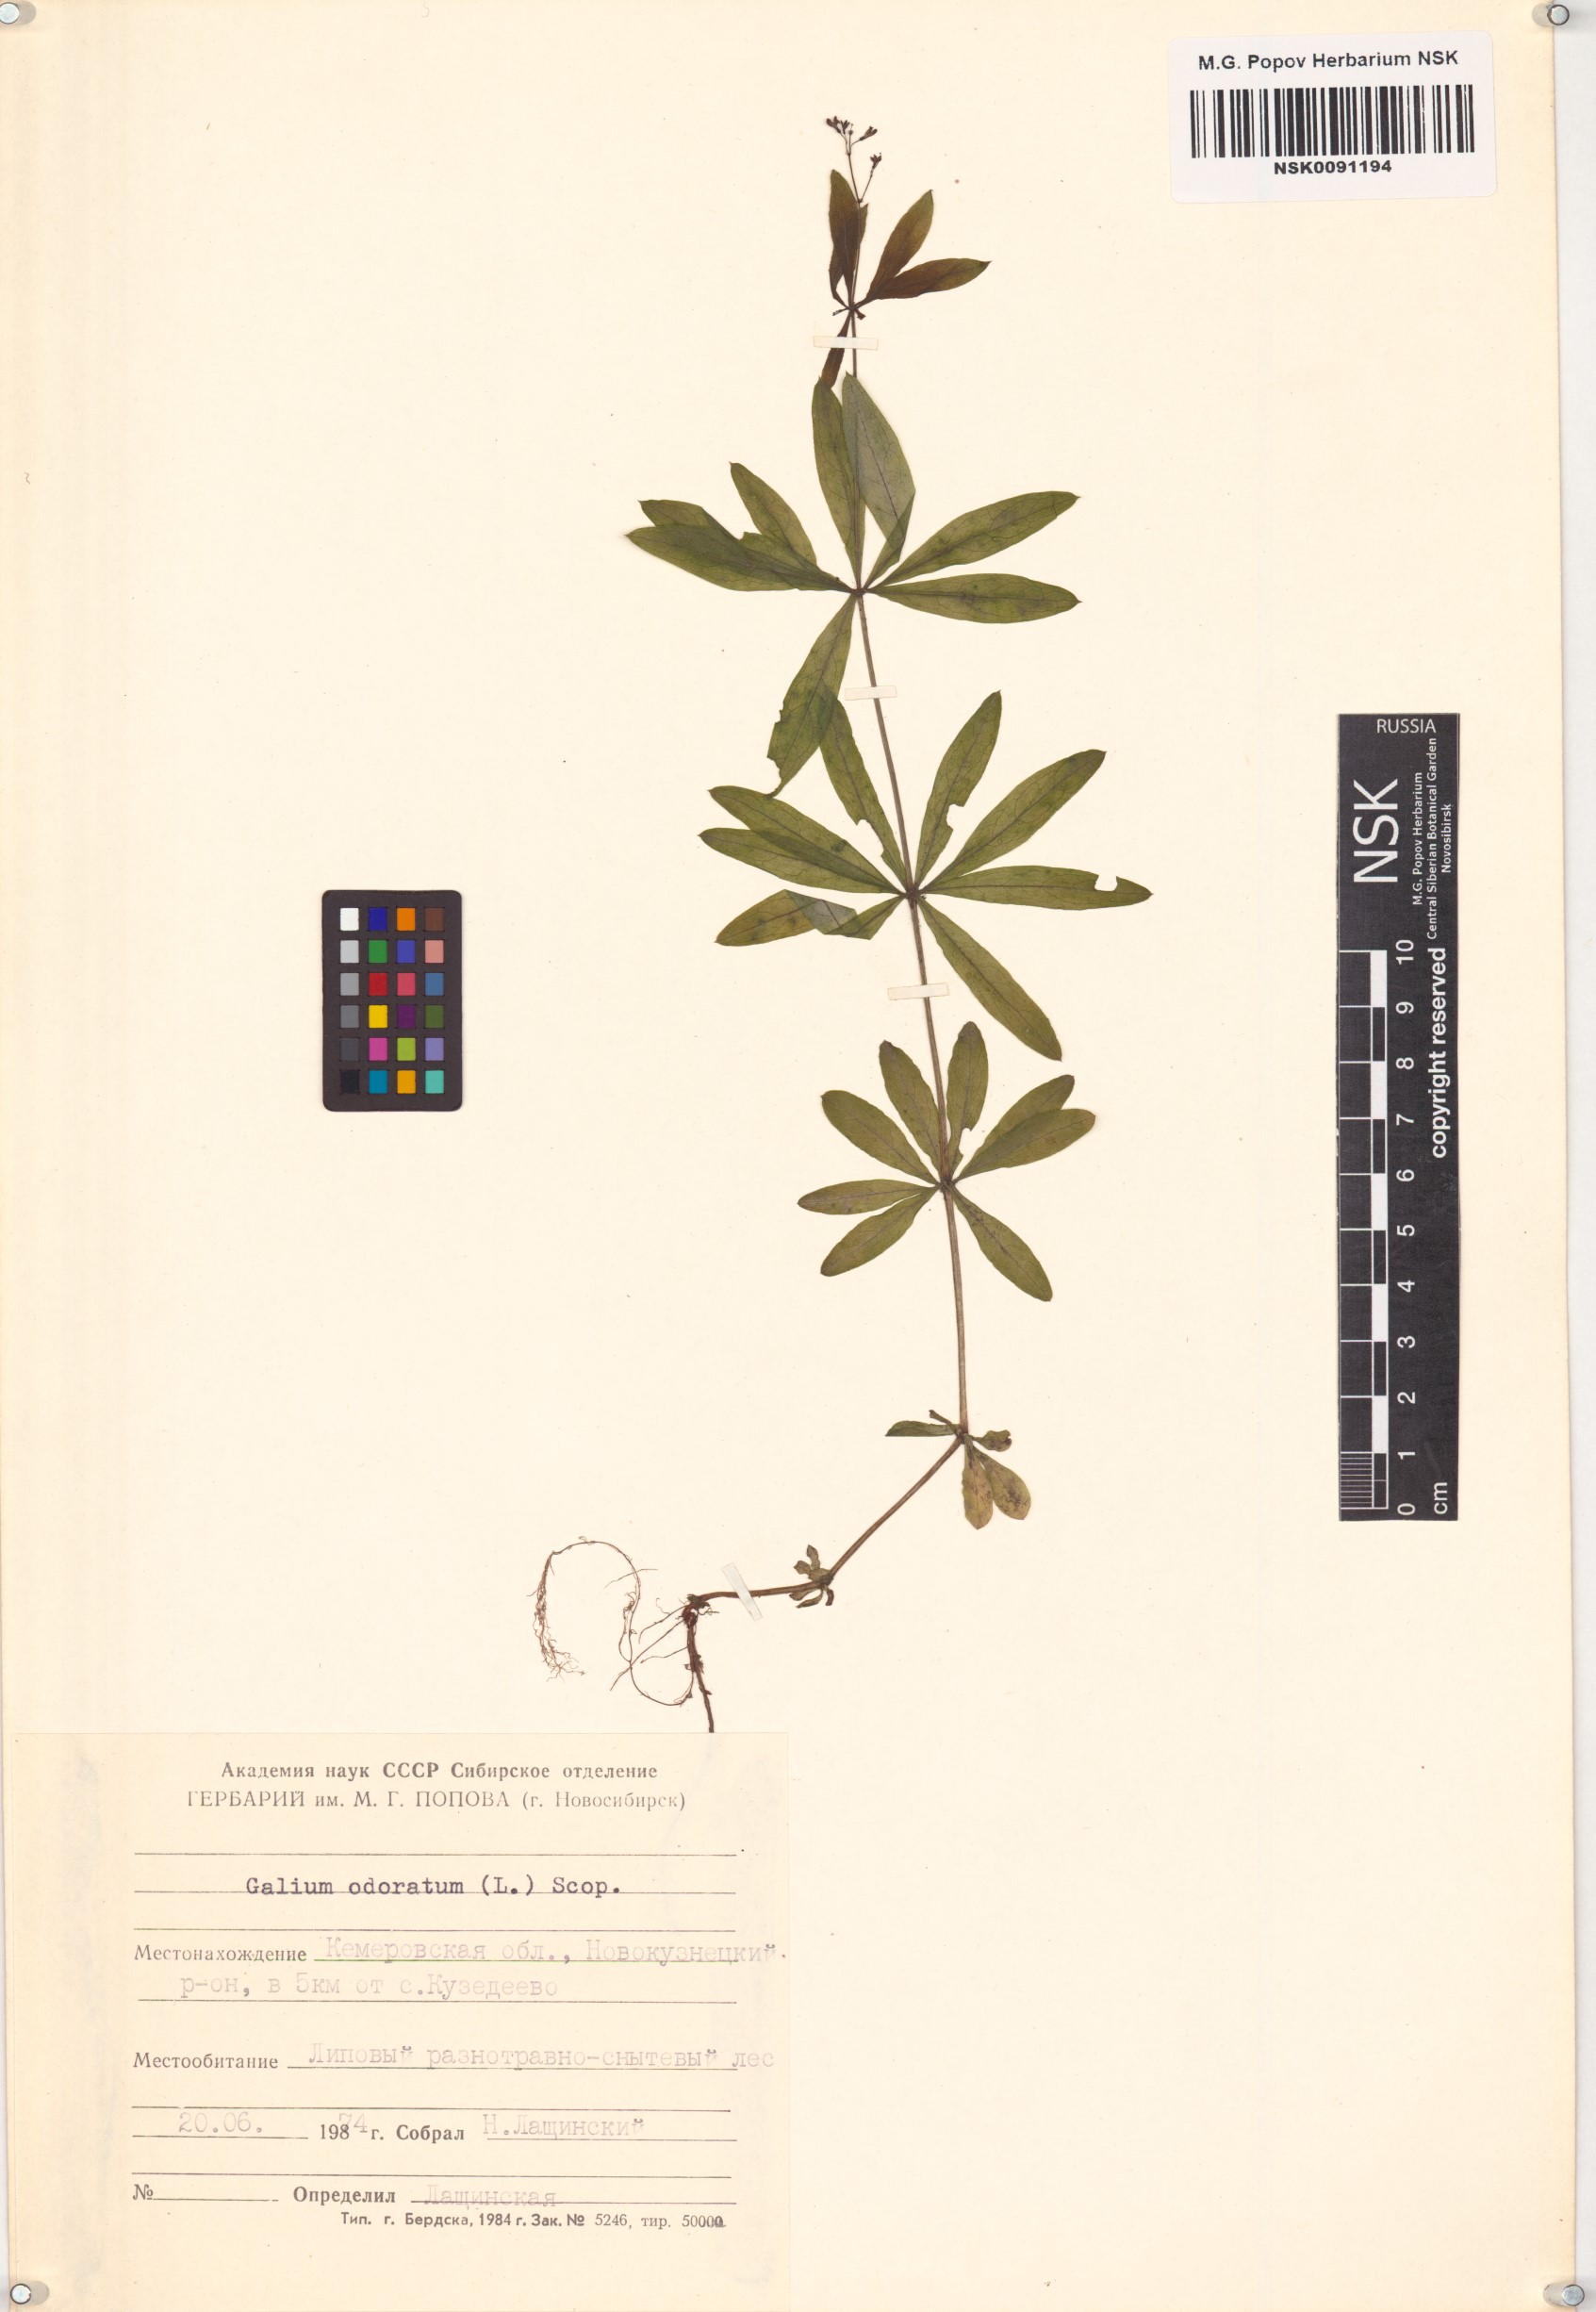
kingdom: Plantae
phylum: Tracheophyta
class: Magnoliopsida
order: Gentianales
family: Rubiaceae
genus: Galium
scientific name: Galium odoratum
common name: Sweet woodruff
